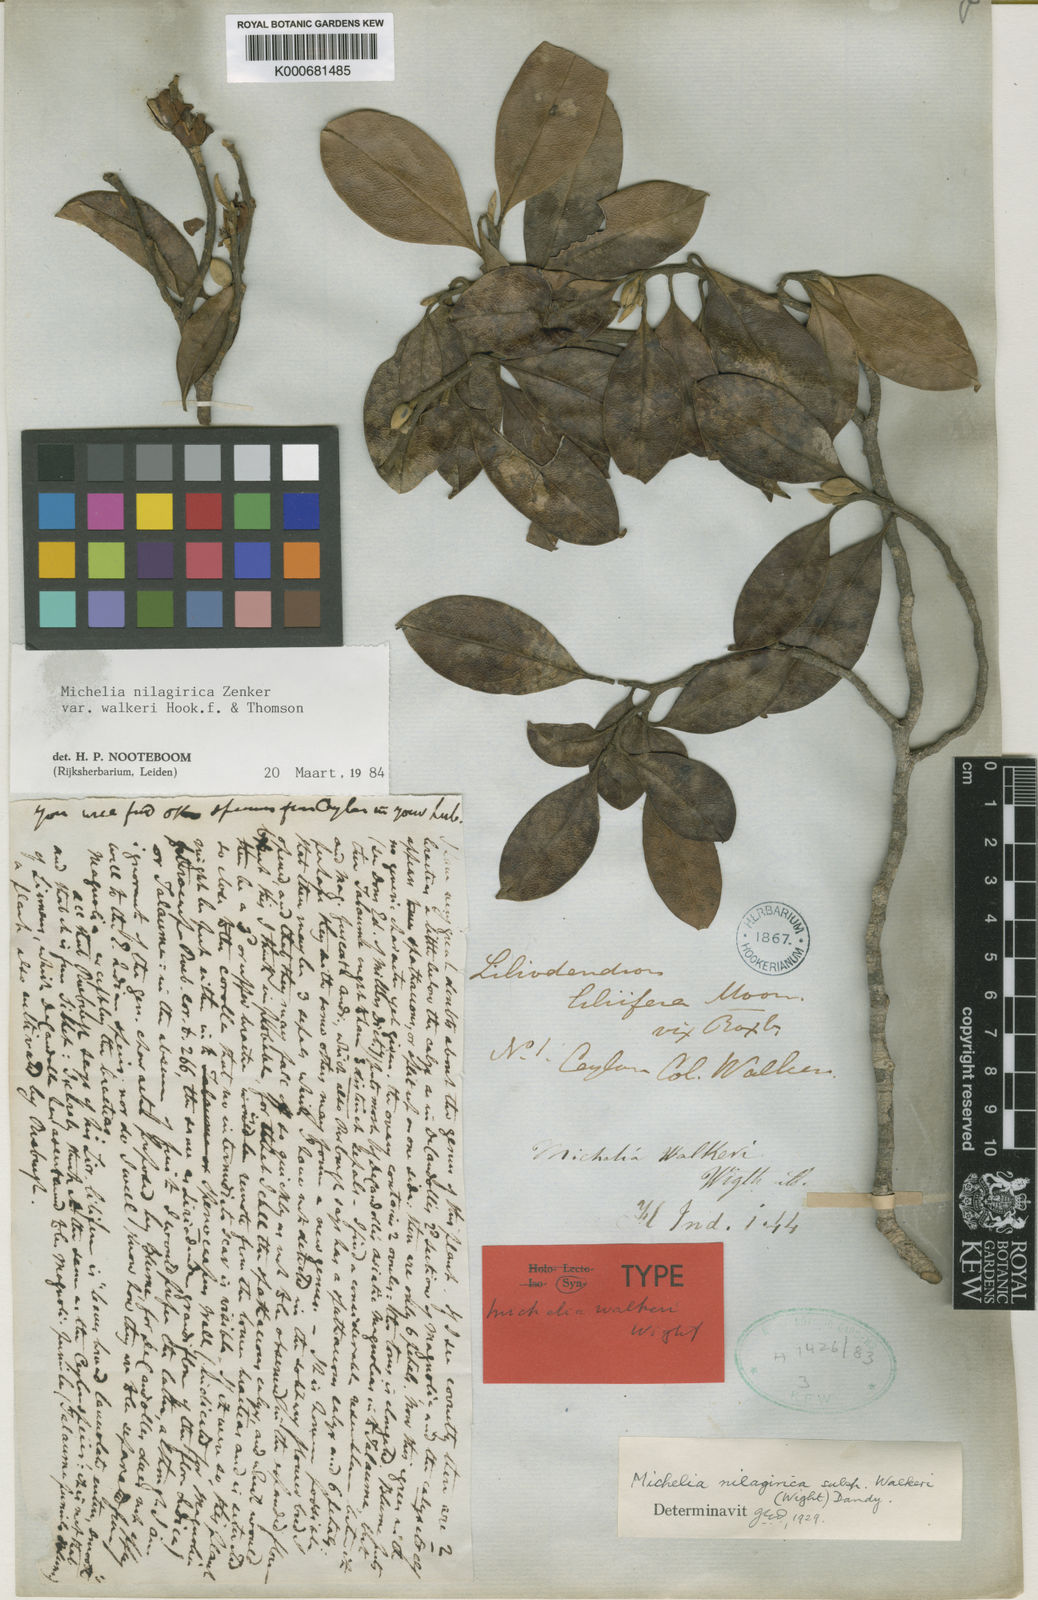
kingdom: Plantae
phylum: Tracheophyta
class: Magnoliopsida
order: Magnoliales
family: Magnoliaceae
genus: Magnolia
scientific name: Magnolia nilagirica
